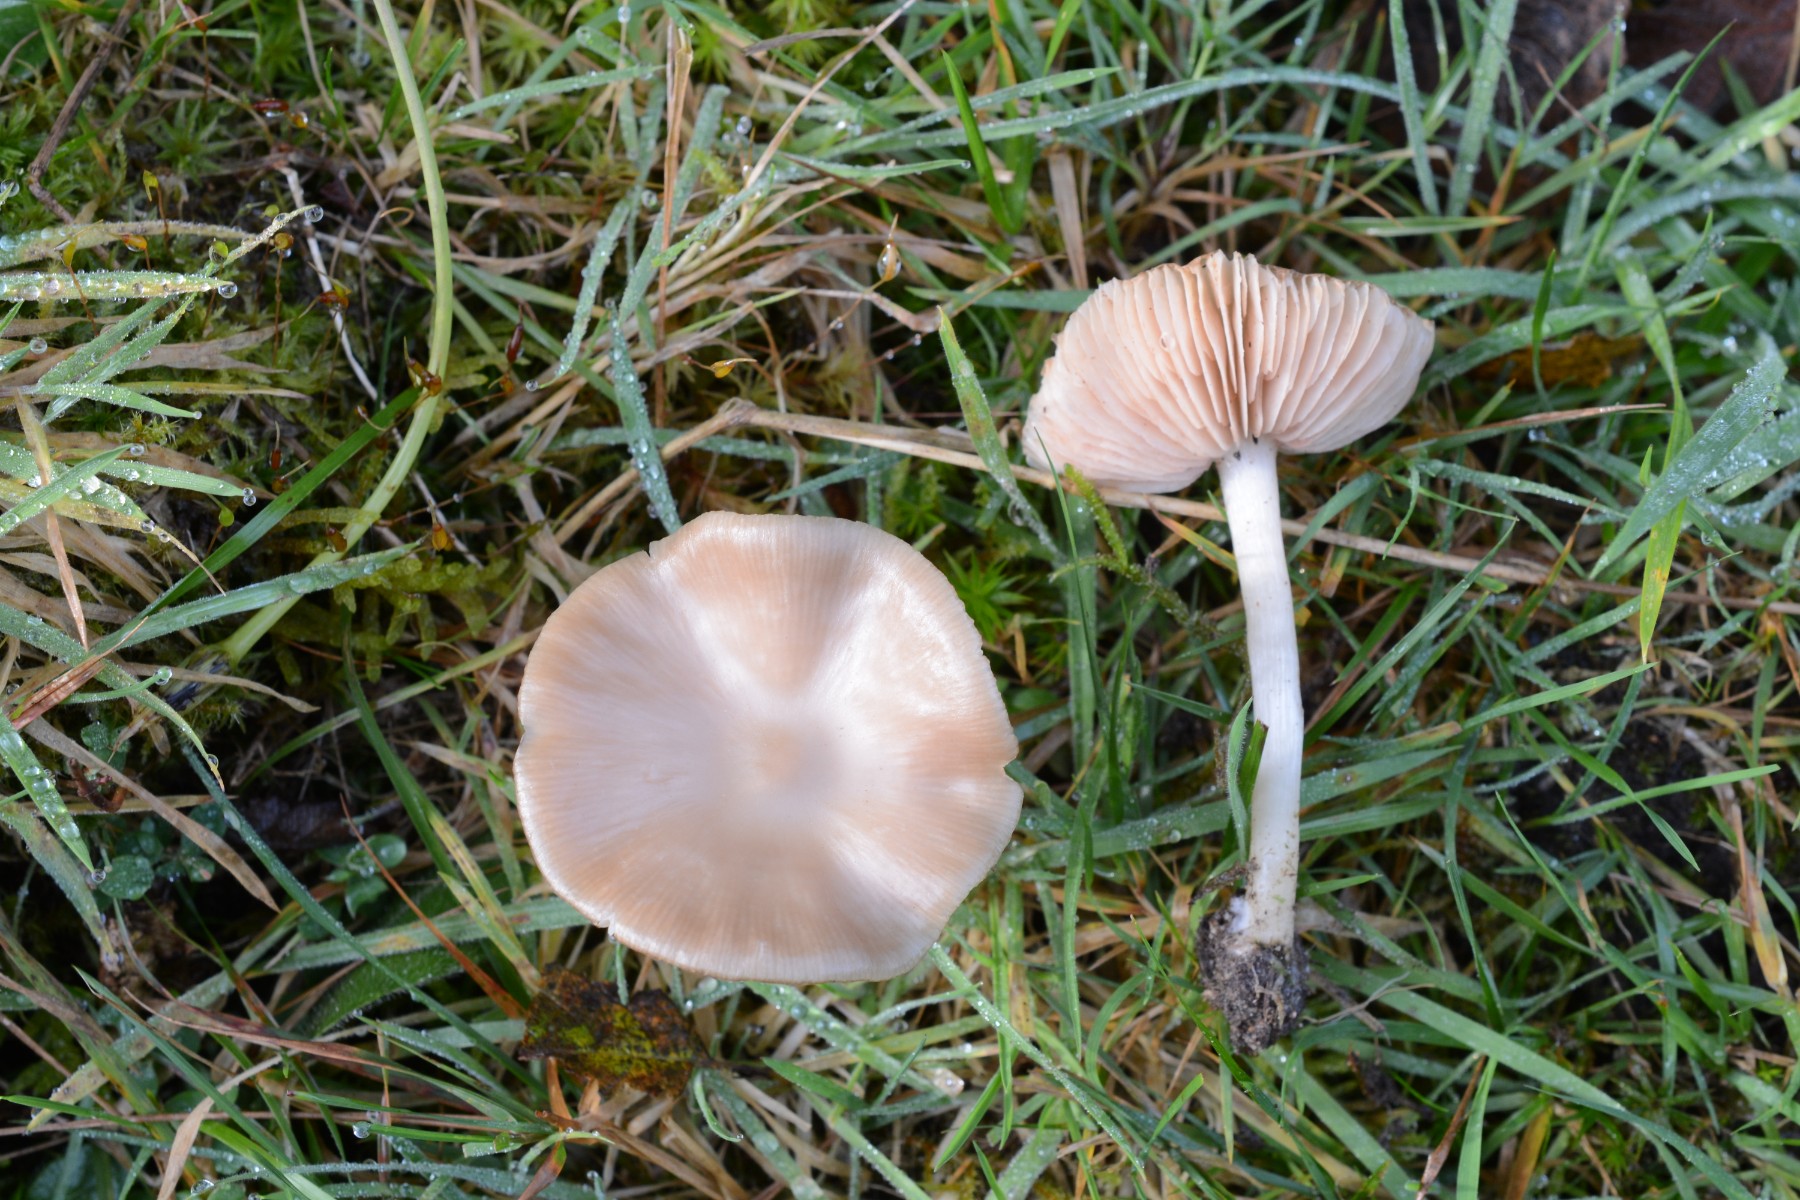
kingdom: Fungi
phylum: Basidiomycota
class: Agaricomycetes
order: Agaricales
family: Entolomataceae
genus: Entoloma
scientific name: Entoloma sericatum
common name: rank rødblad
